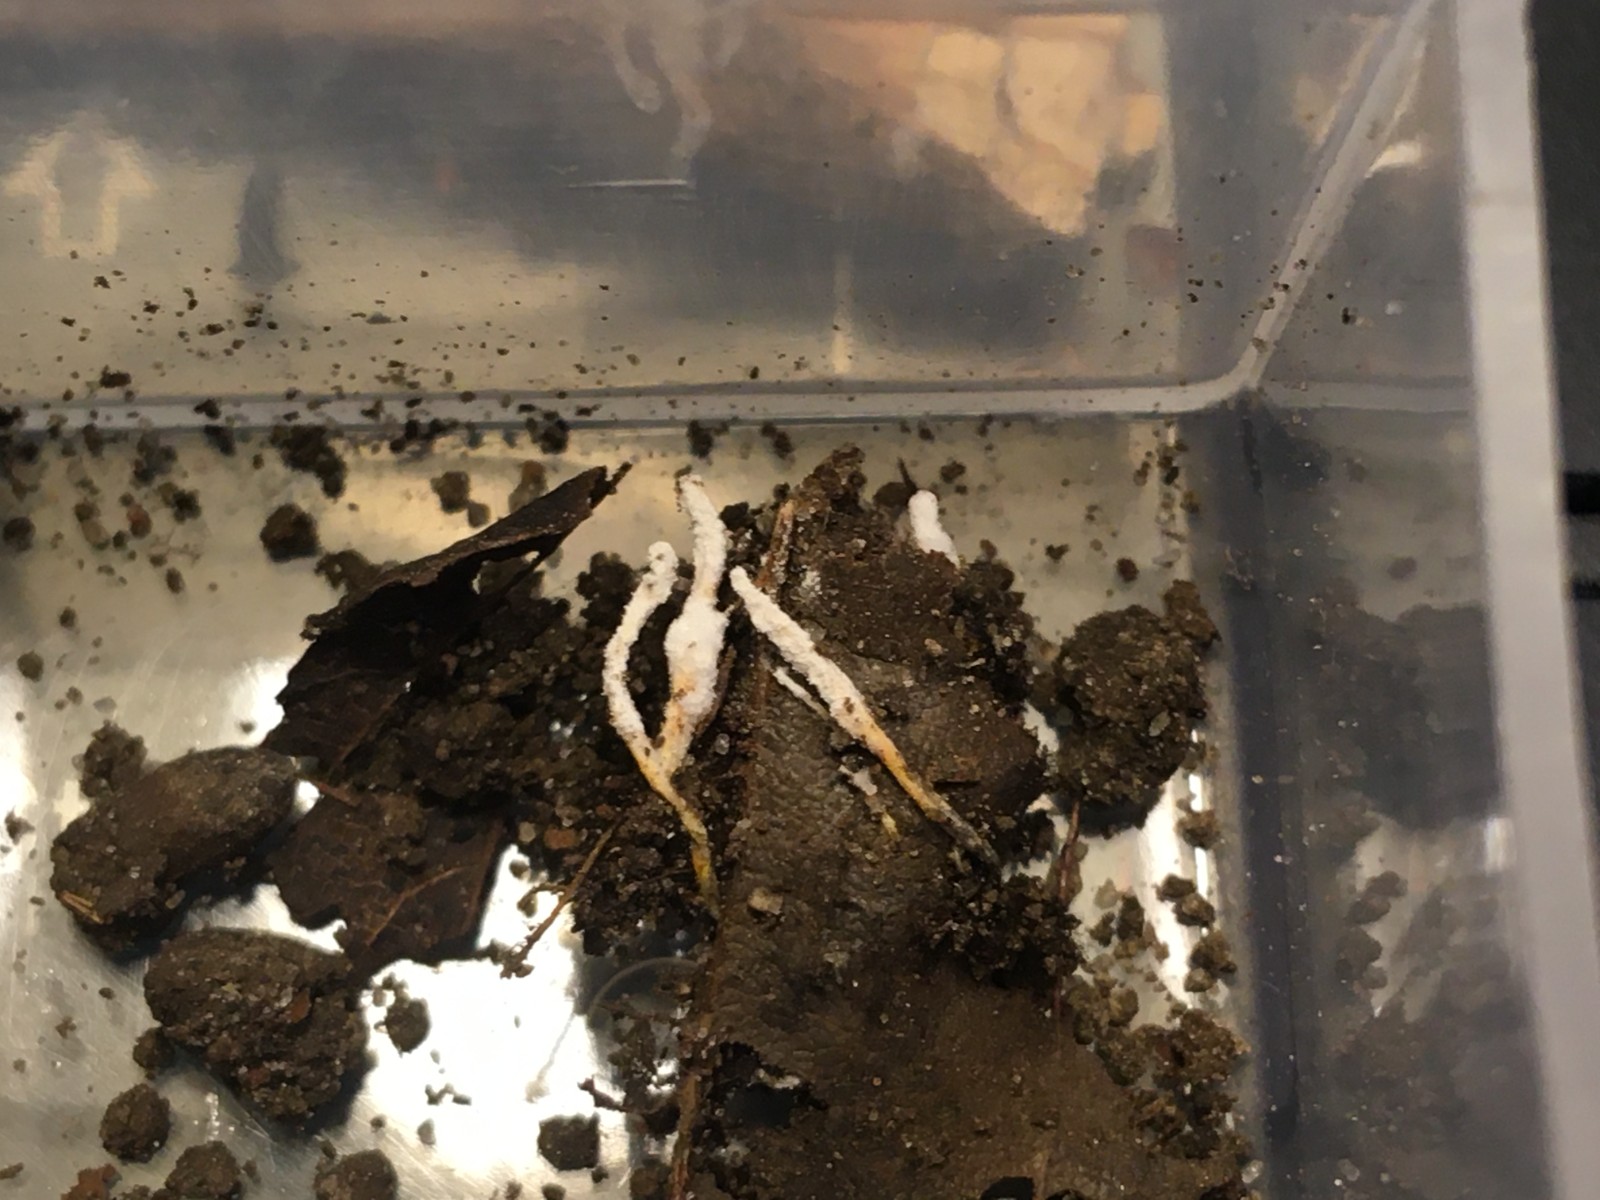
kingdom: Fungi
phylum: Ascomycota
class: Sordariomycetes
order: Hypocreales
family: Cordycipitaceae
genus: Cordyceps
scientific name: Cordyceps farinosa
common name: melet snyltekølle
